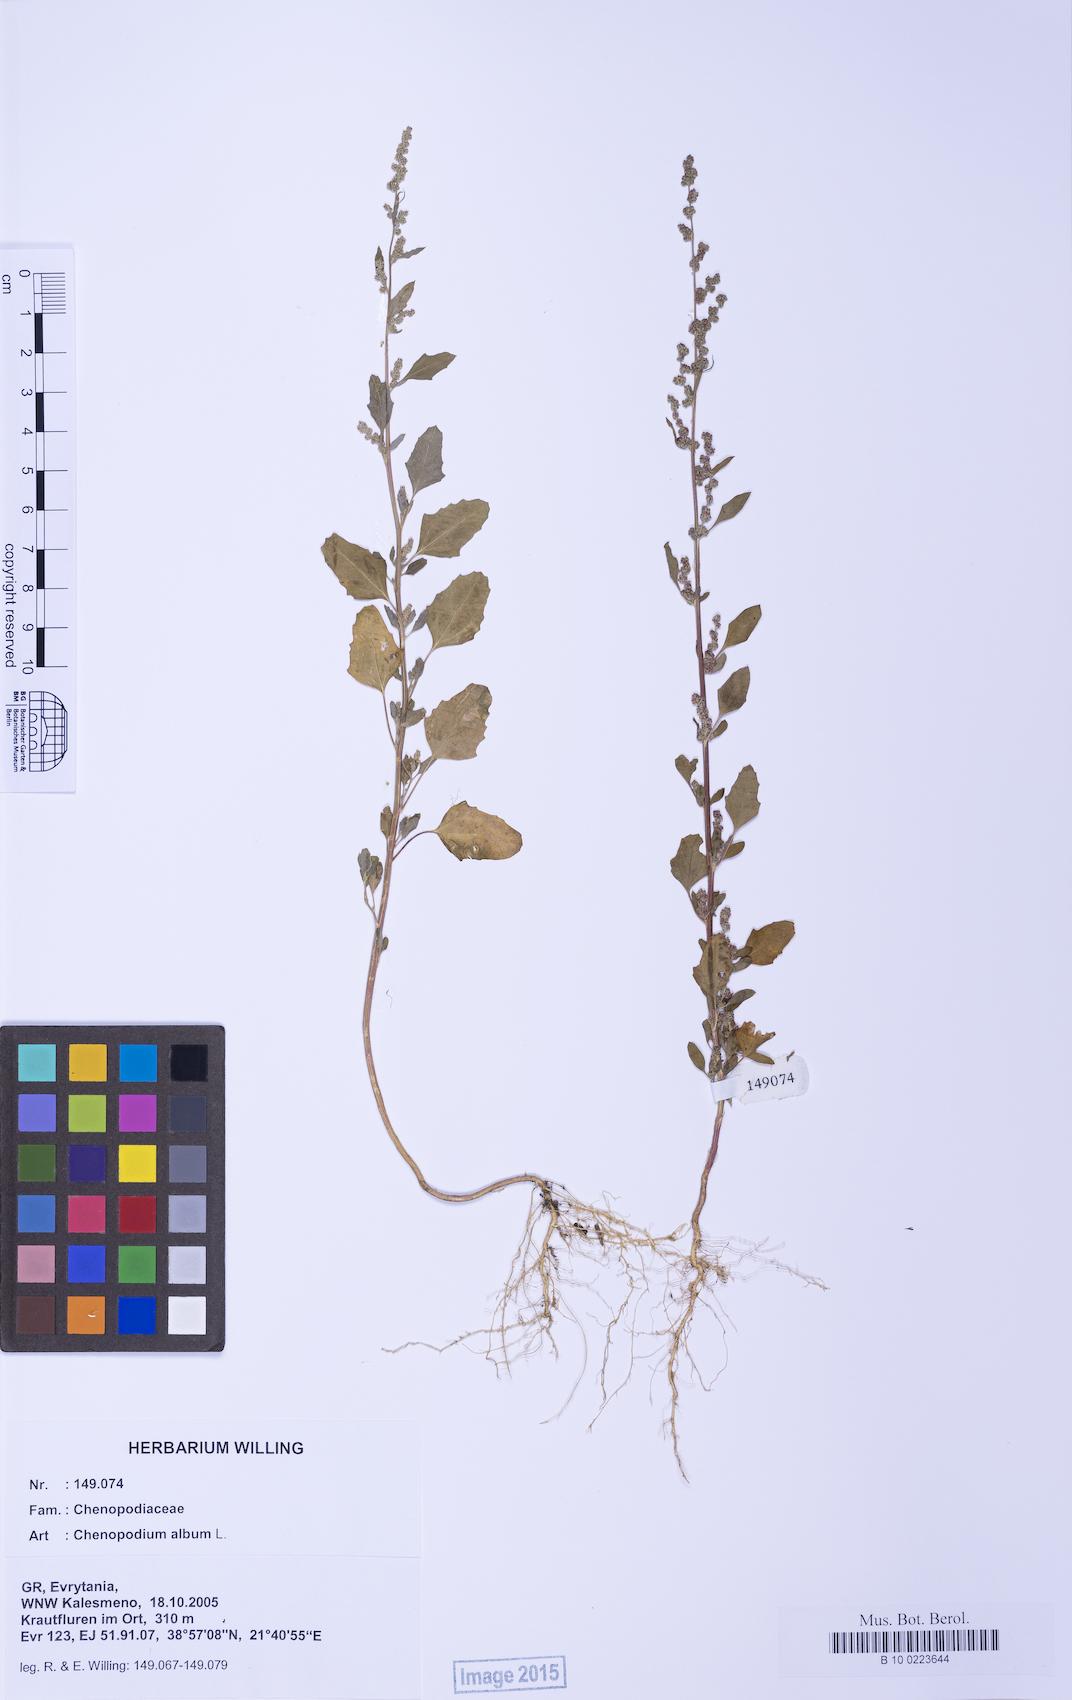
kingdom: Plantae
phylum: Tracheophyta
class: Magnoliopsida
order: Caryophyllales
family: Amaranthaceae
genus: Chenopodium
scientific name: Chenopodium album
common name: Fat-hen
